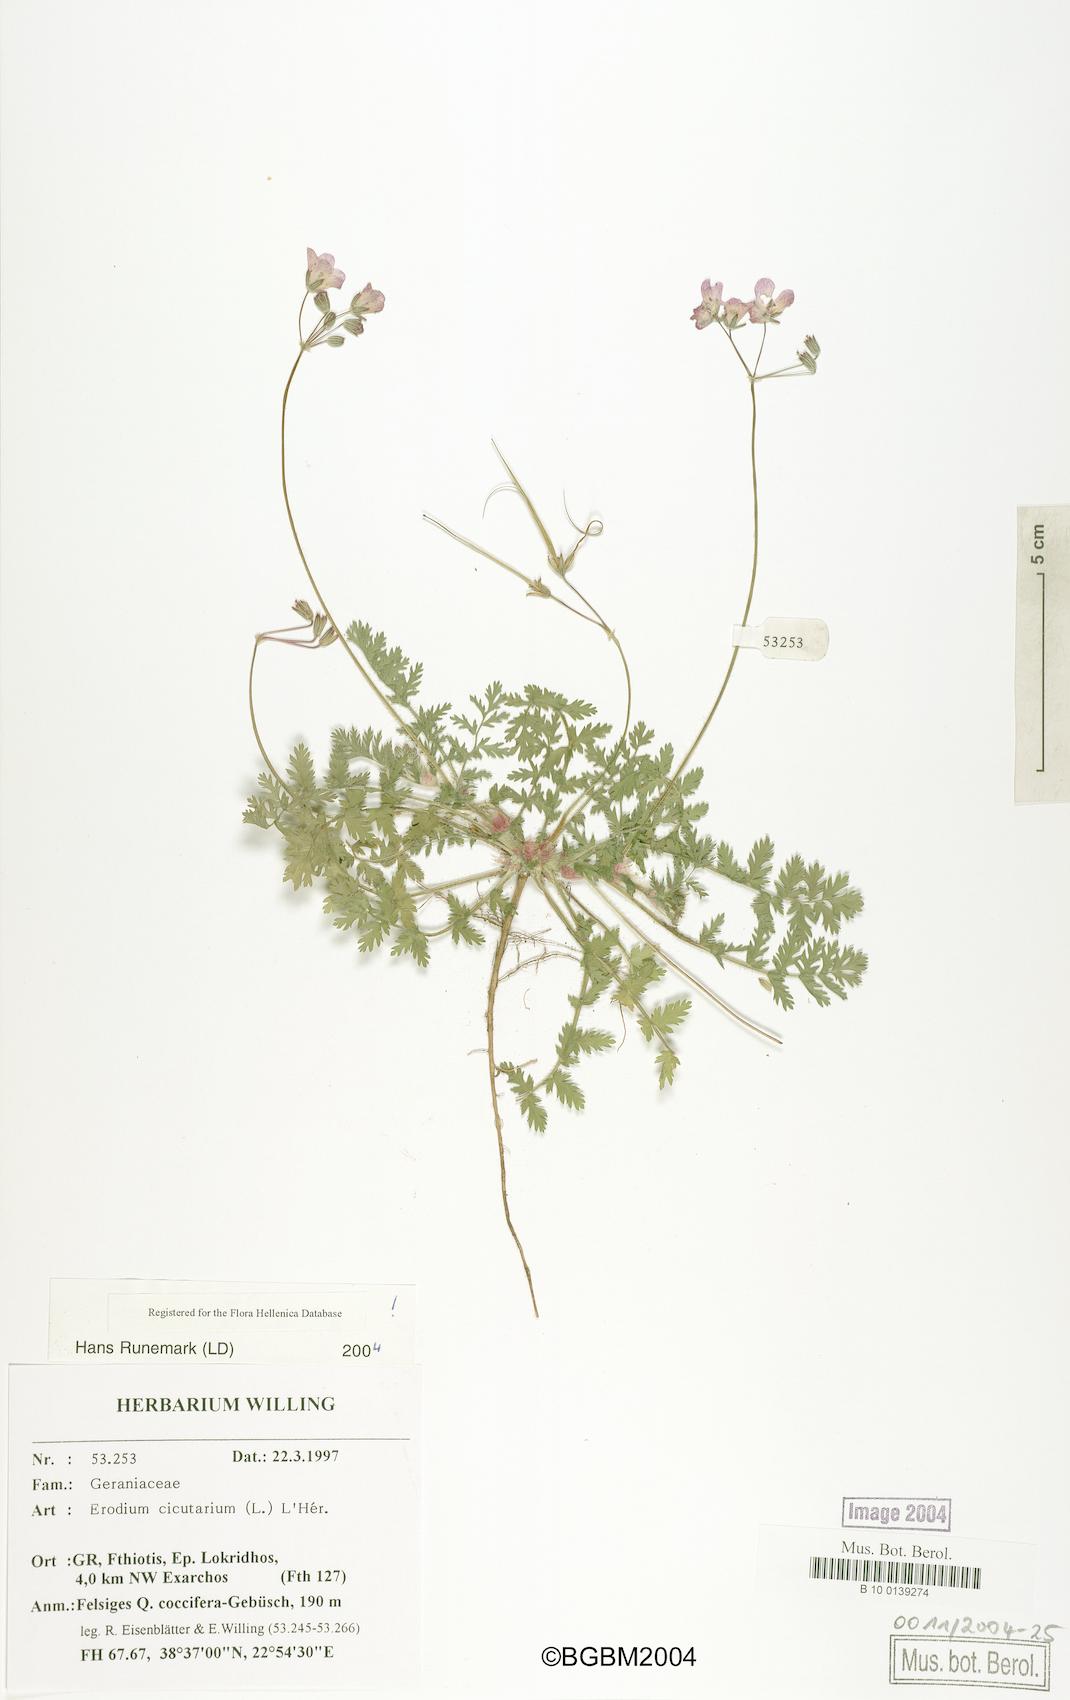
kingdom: Plantae
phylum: Tracheophyta
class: Magnoliopsida
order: Geraniales
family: Geraniaceae
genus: Erodium
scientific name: Erodium cicutarium
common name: Common stork's-bill
